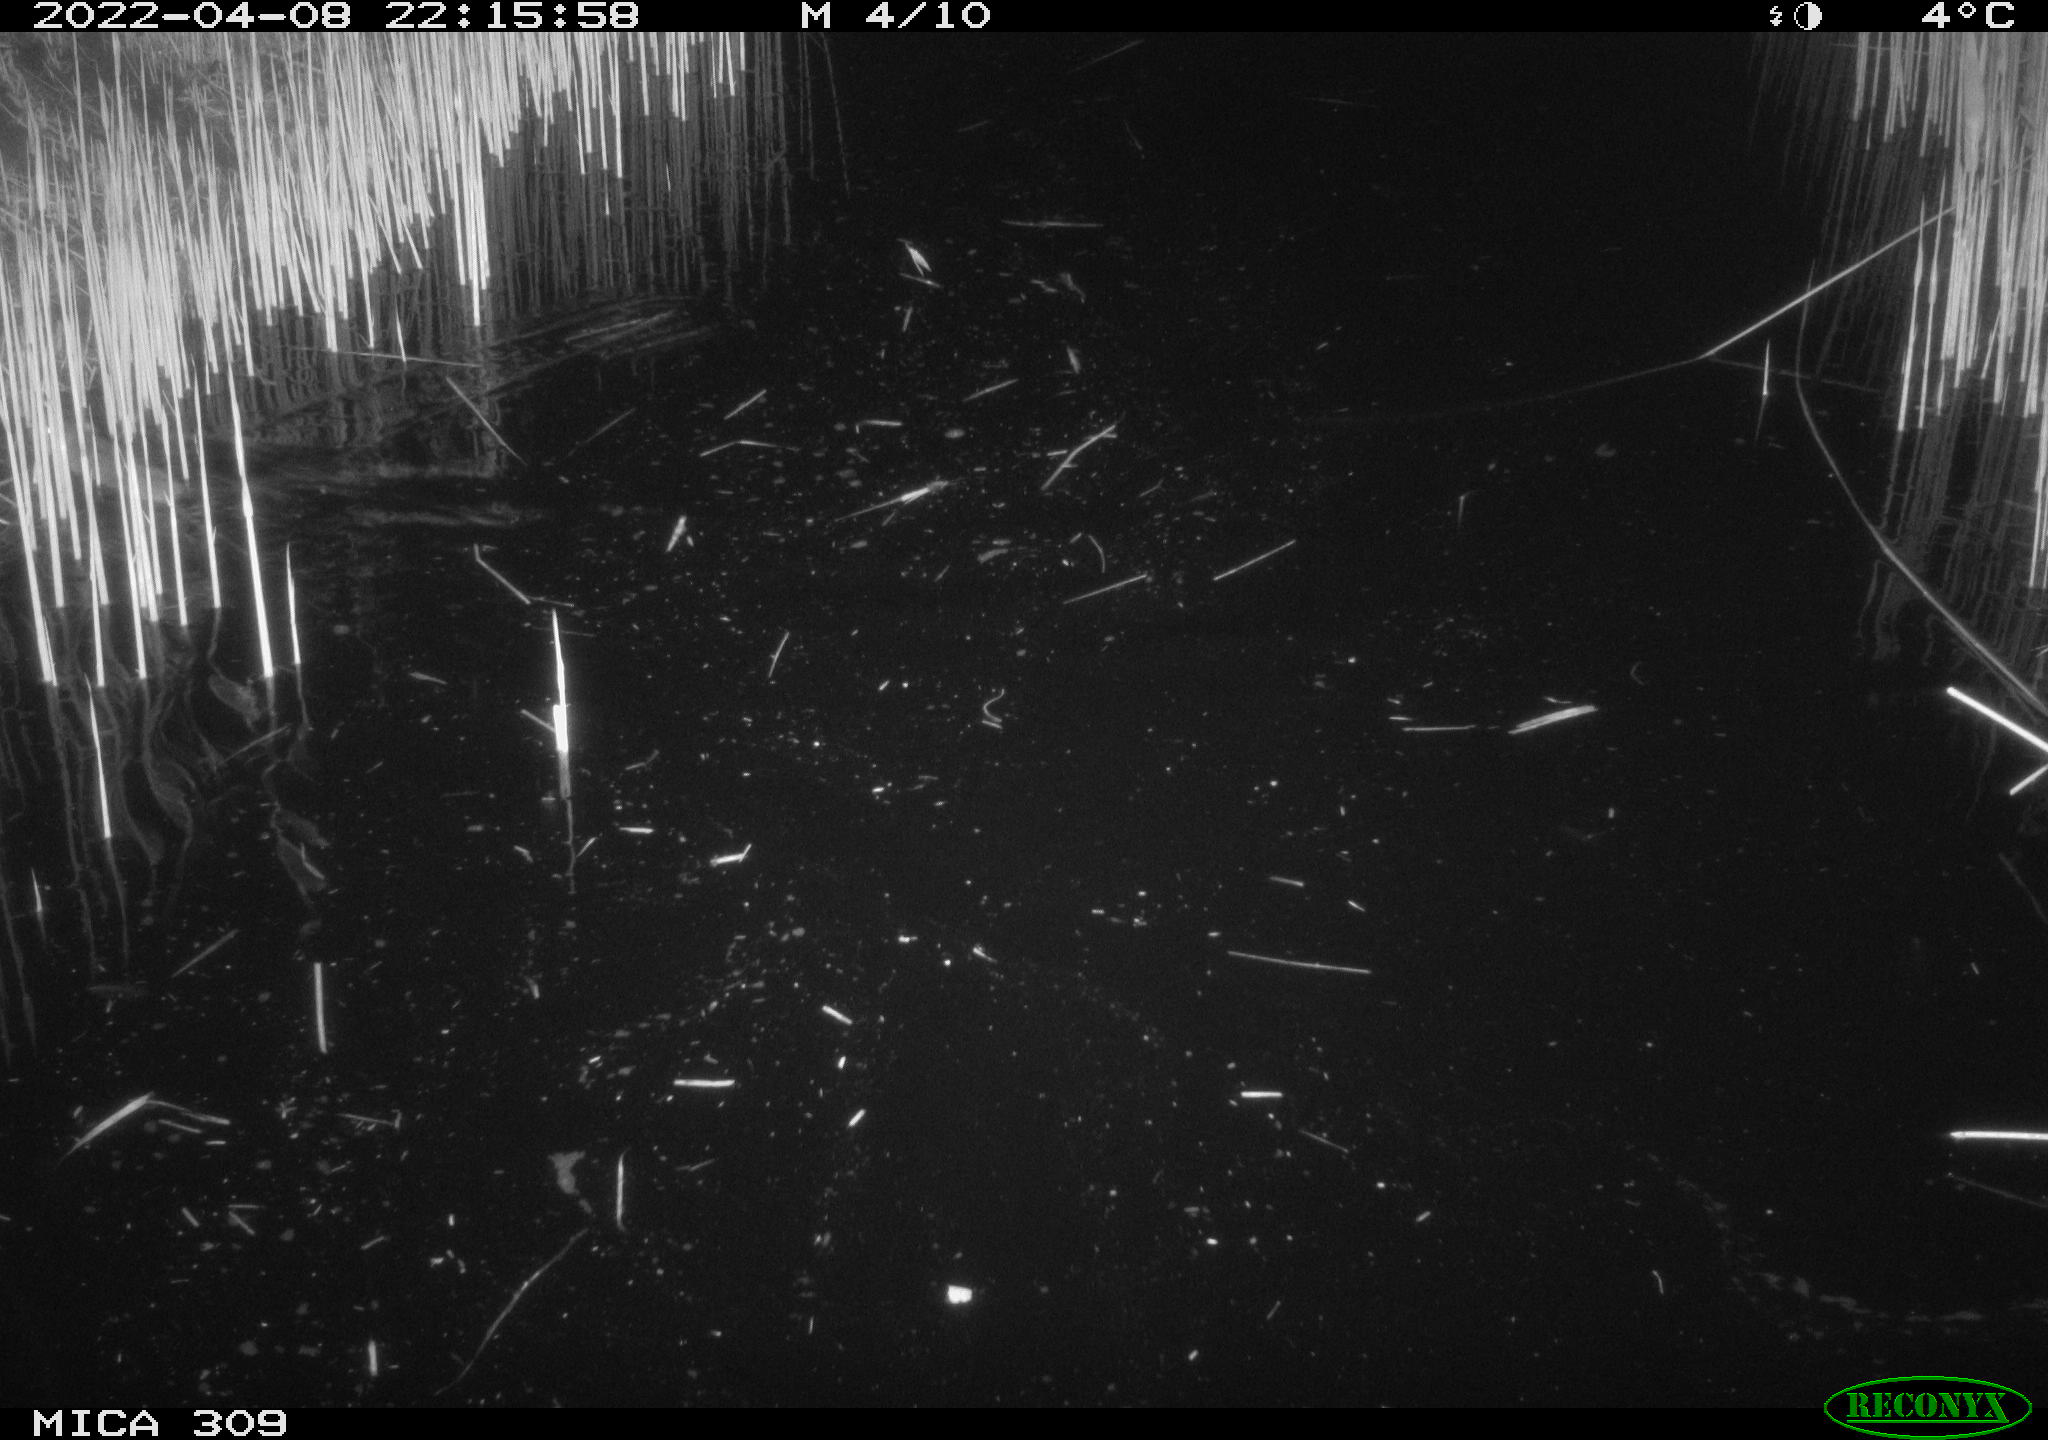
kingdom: Animalia
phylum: Chordata
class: Mammalia
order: Rodentia
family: Muridae
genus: Rattus
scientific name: Rattus norvegicus
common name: Brown rat
